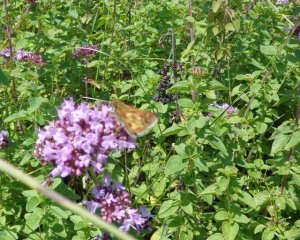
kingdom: Animalia
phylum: Arthropoda
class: Insecta
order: Lepidoptera
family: Hesperiidae
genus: Polites
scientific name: Polites coras
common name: Peck's Skipper
